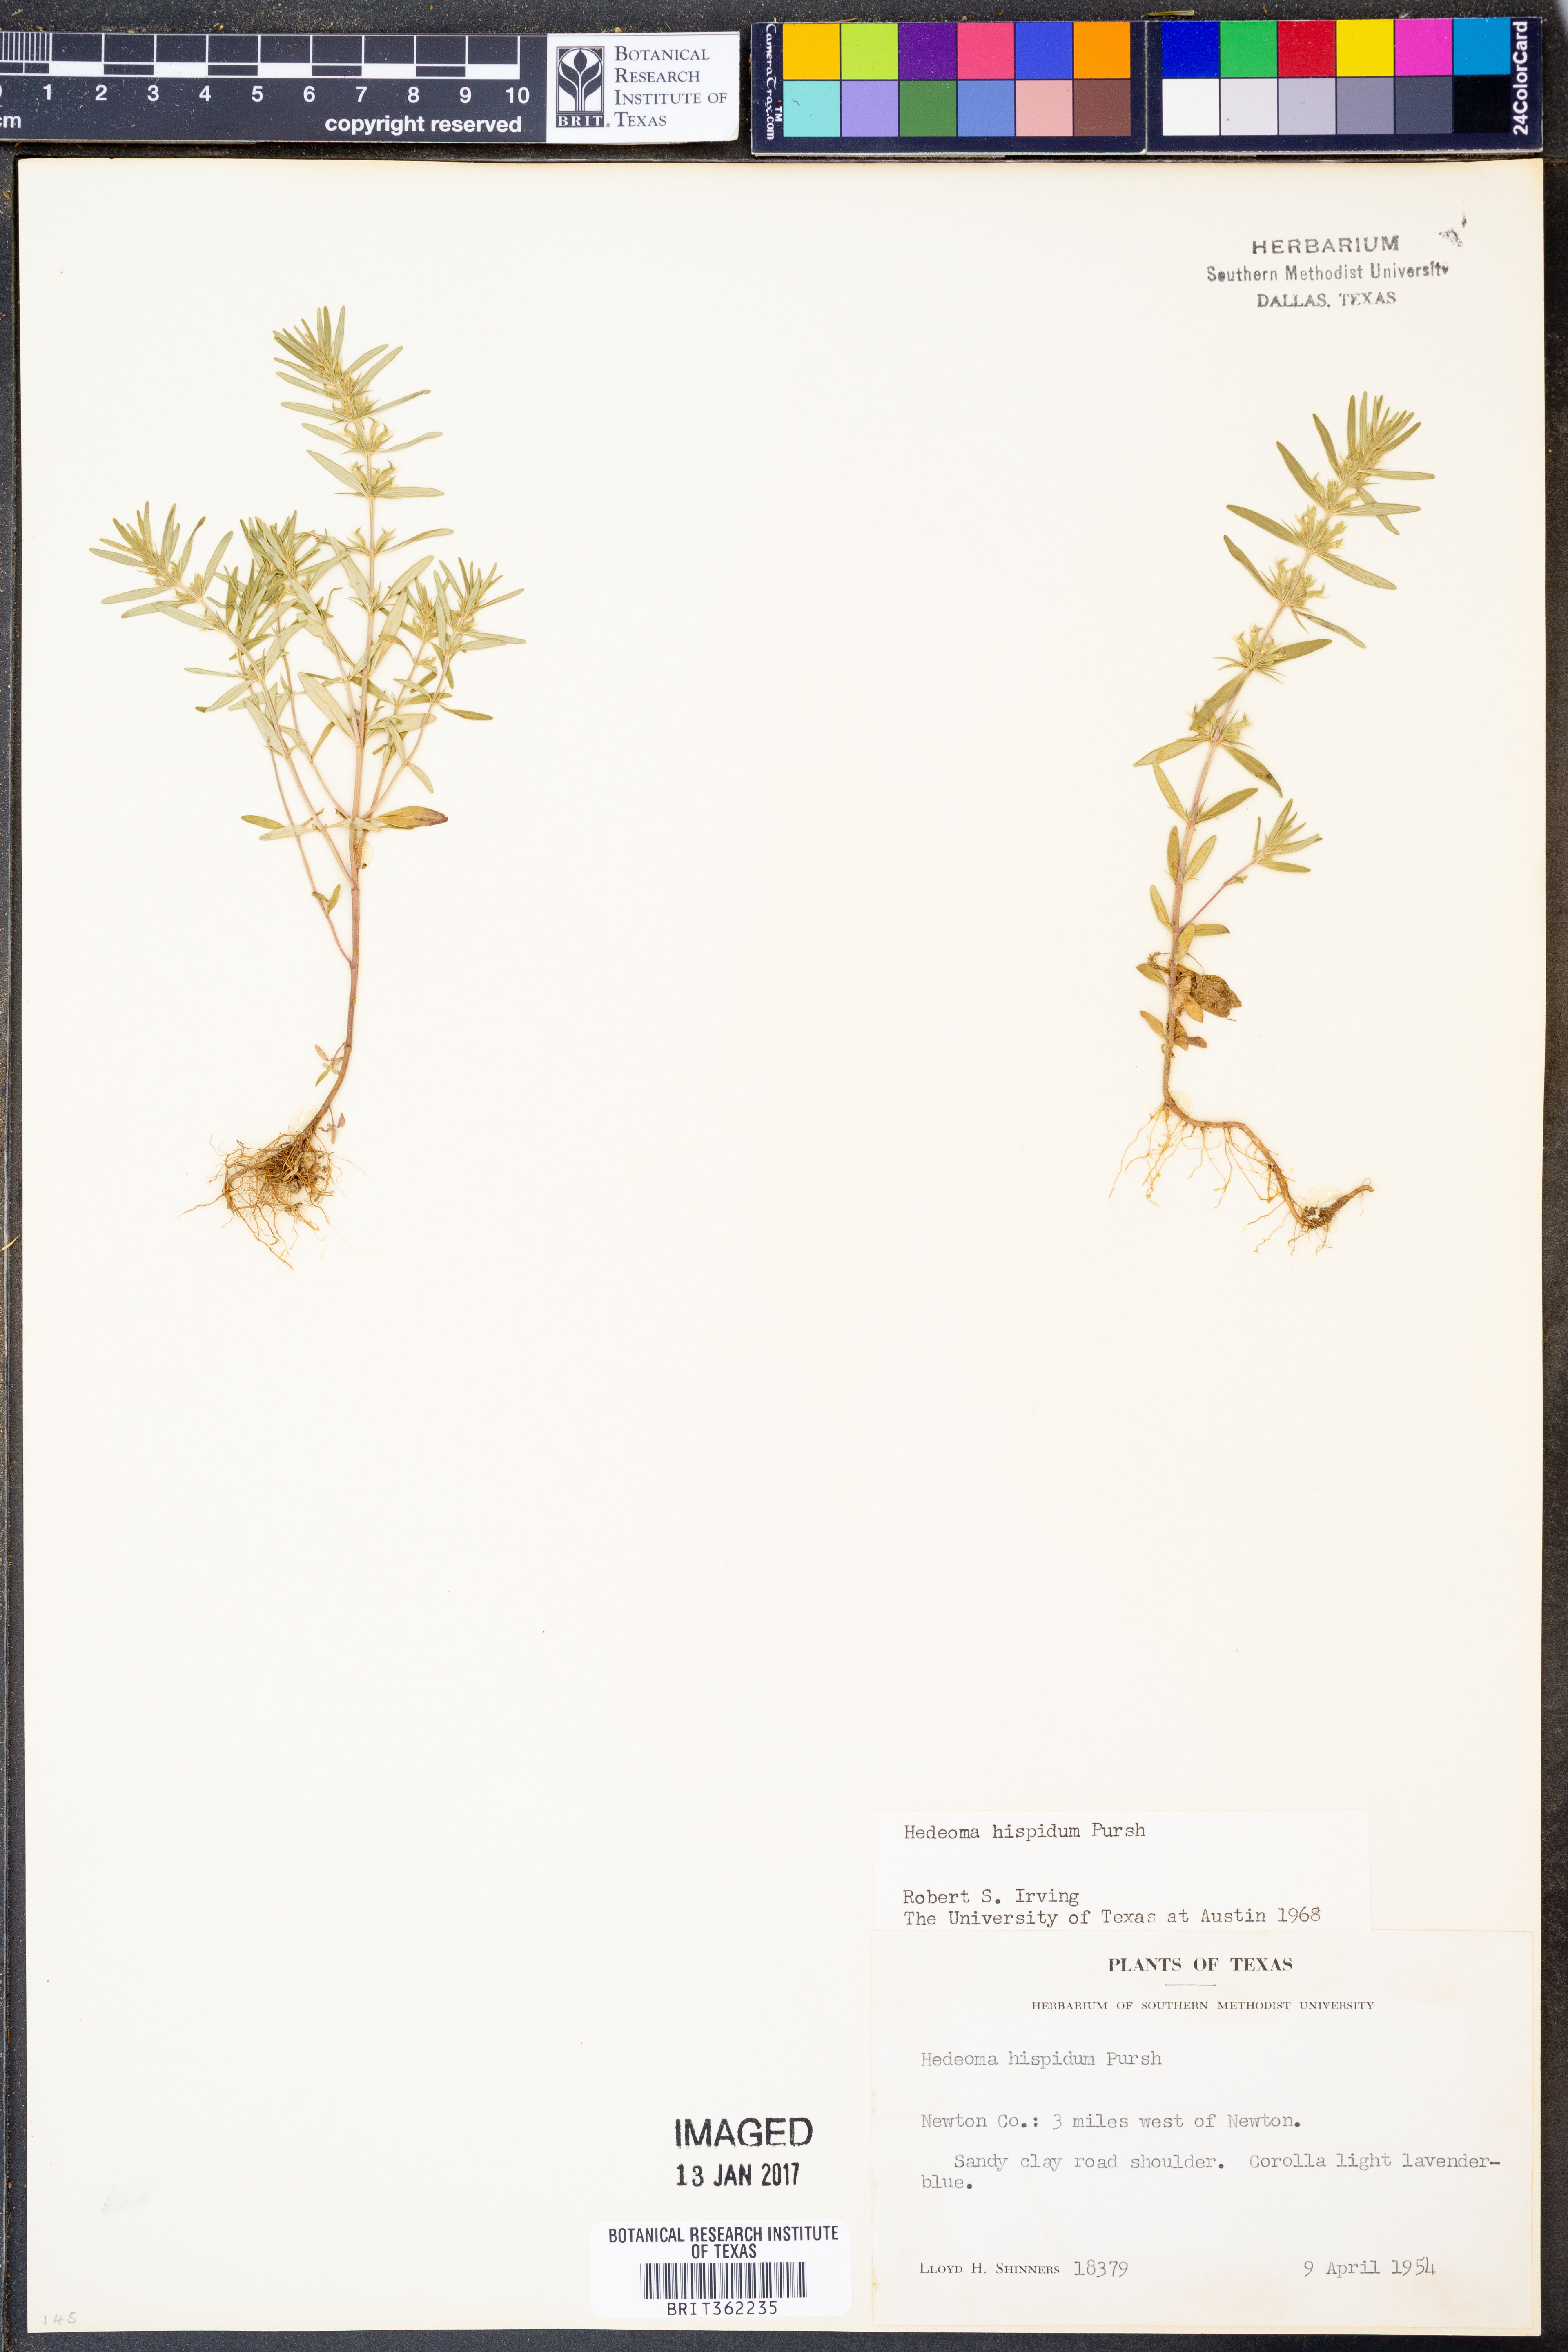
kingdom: Plantae
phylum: Tracheophyta
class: Magnoliopsida
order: Lamiales
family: Lamiaceae
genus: Hedeoma
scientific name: Hedeoma hispida
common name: Mock pennyroyal
